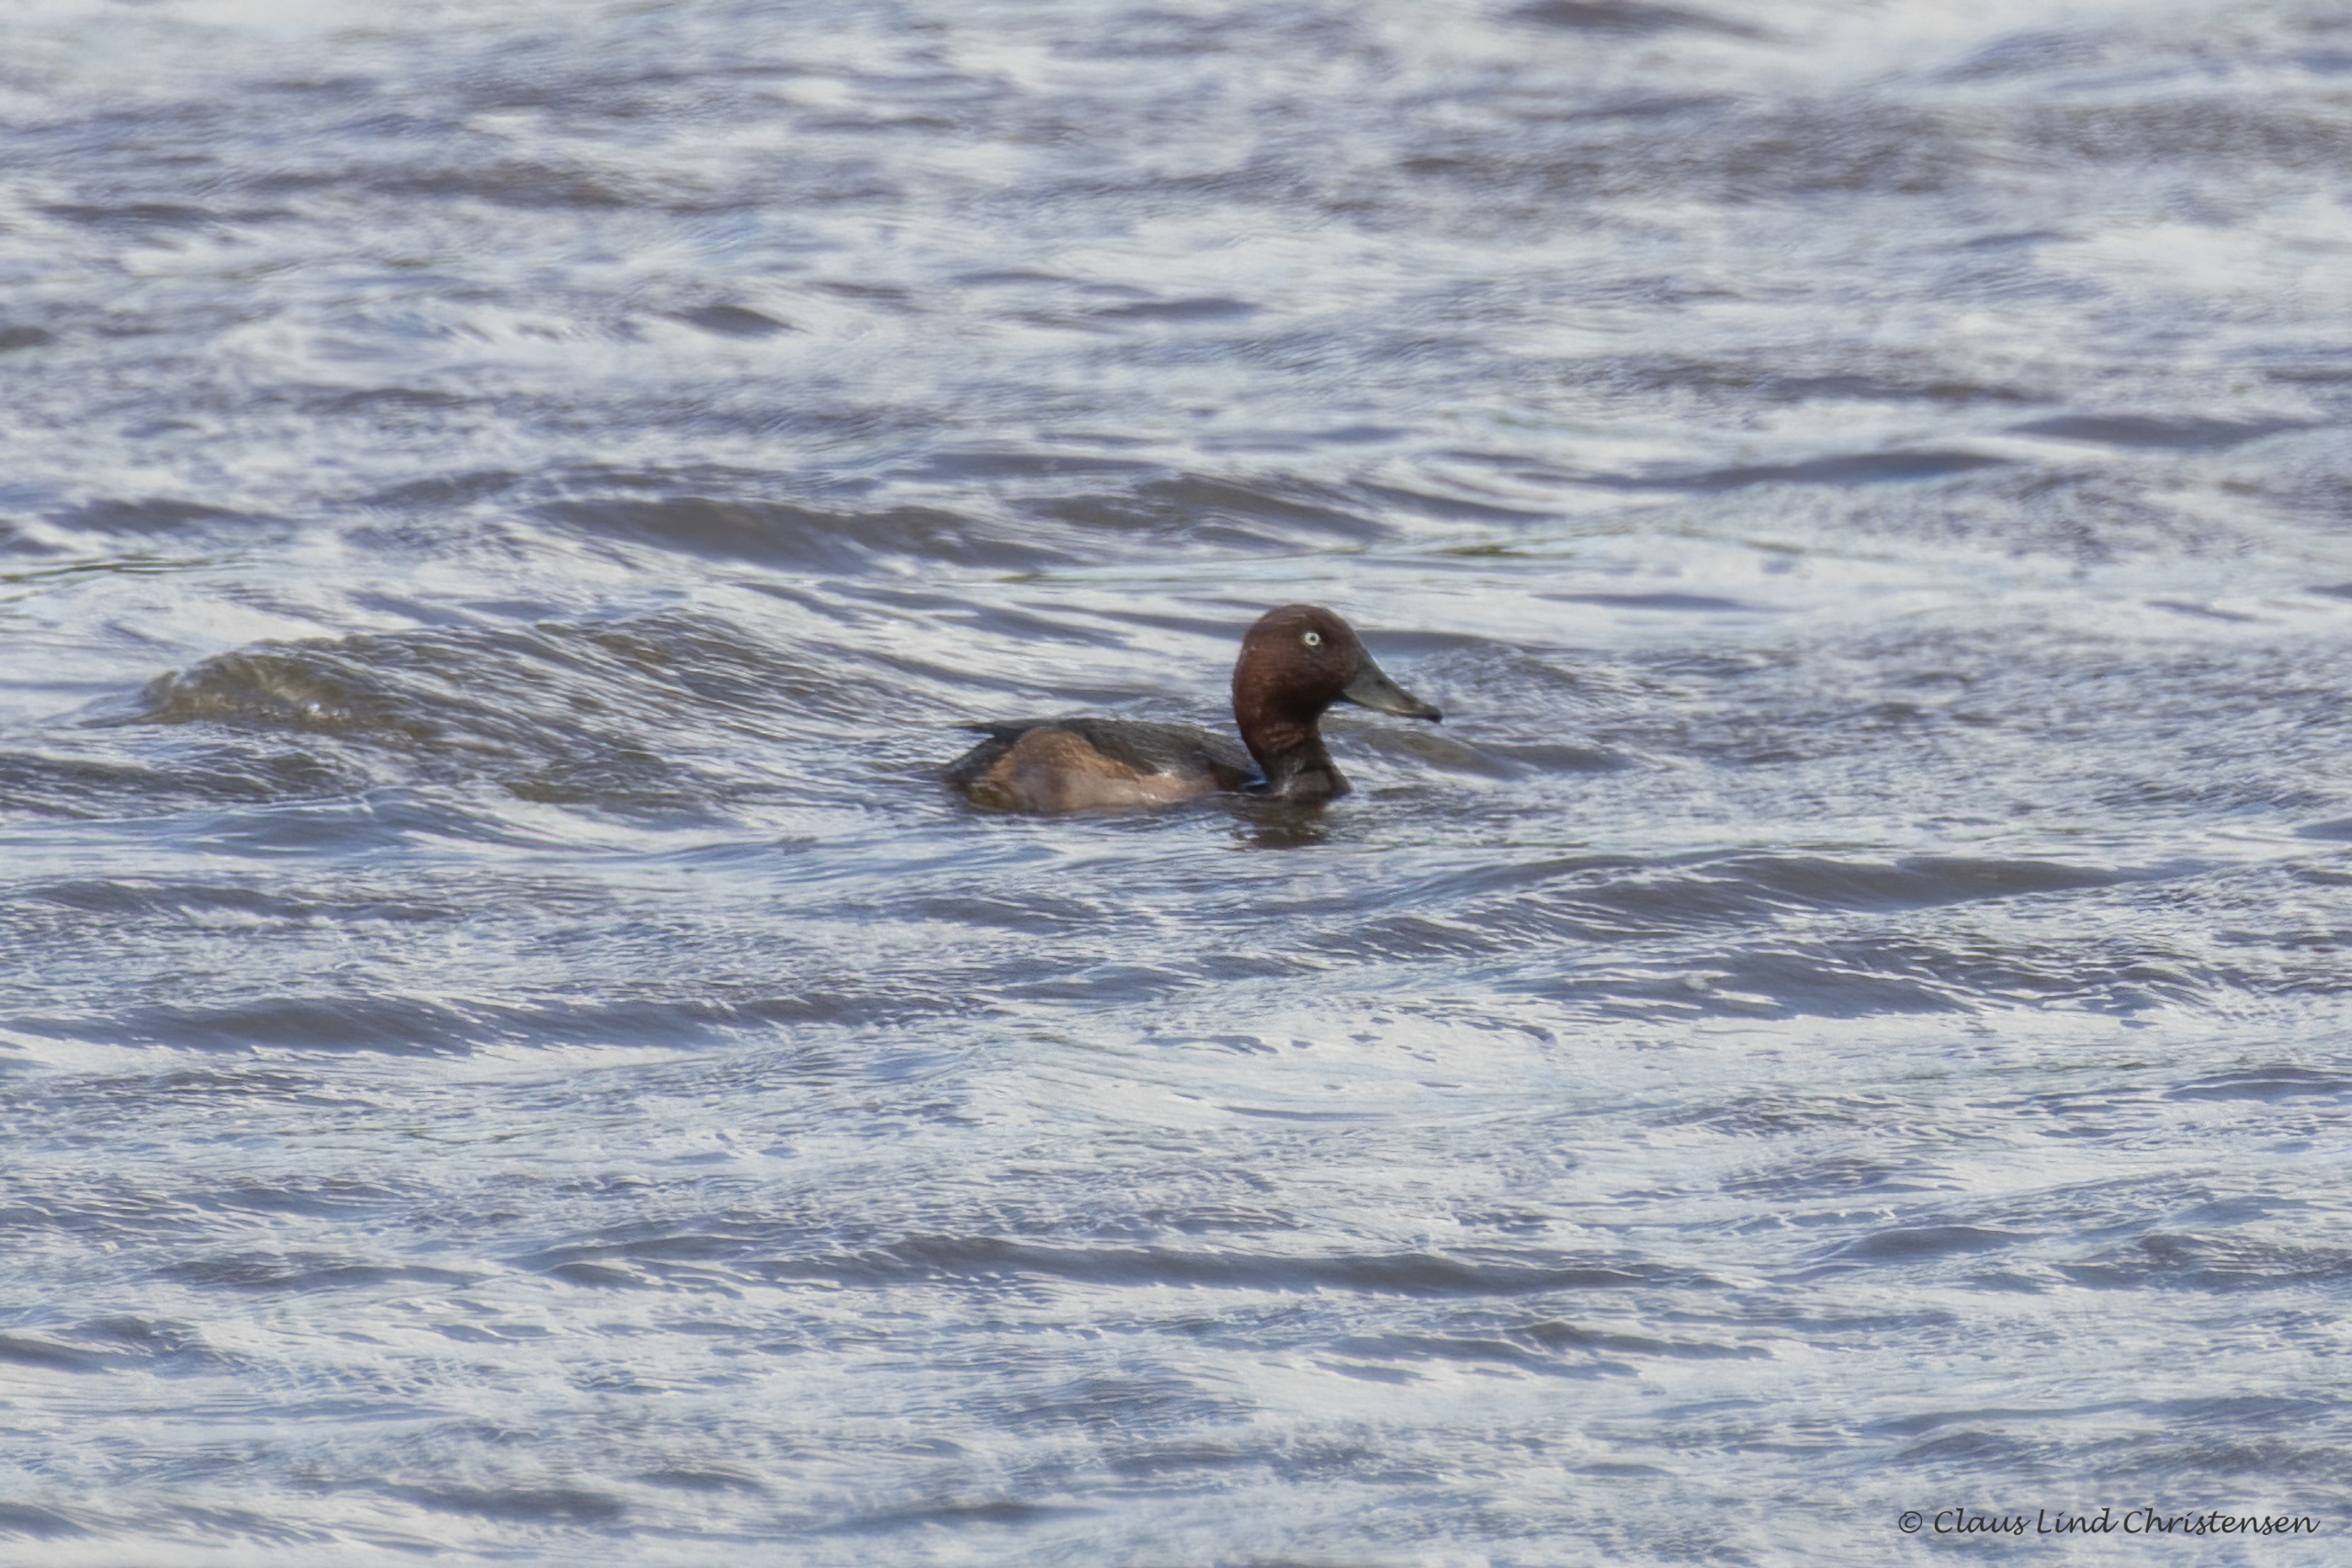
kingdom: Animalia
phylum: Chordata
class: Aves
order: Anseriformes
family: Anatidae
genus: Aythya
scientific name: Aythya nyroca
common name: Hvidøjet and
